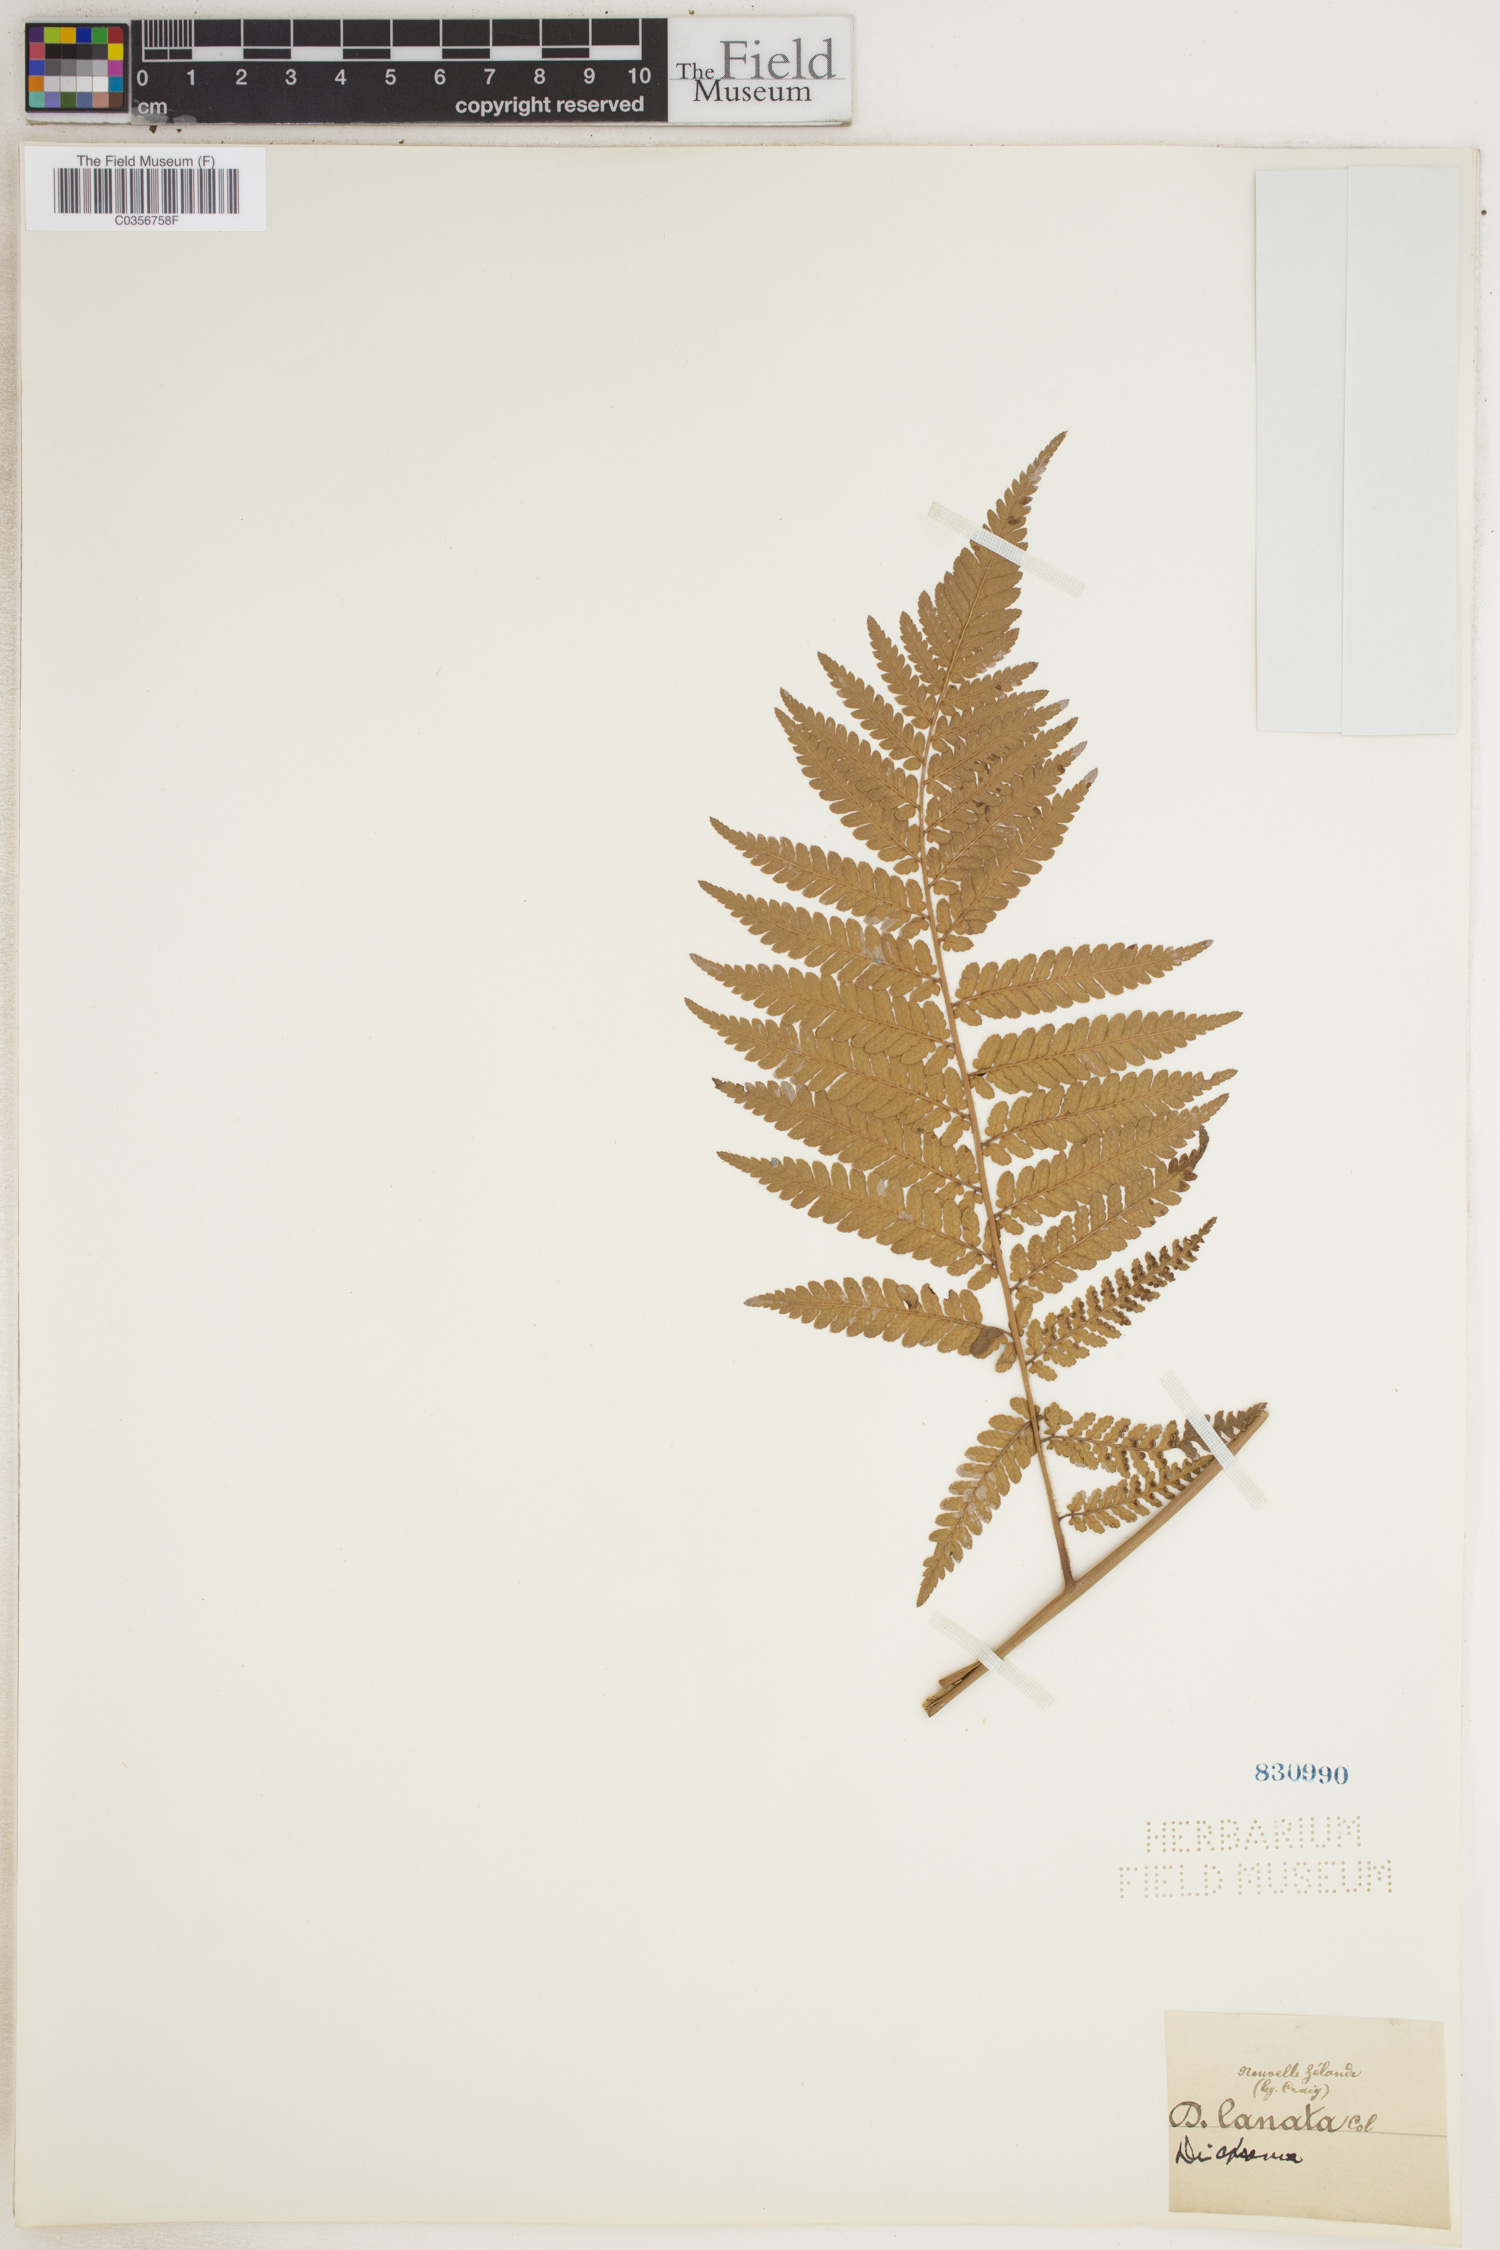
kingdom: Plantae
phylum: Tracheophyta
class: Polypodiopsida
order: Cyatheales
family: Dicksoniaceae
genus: Dicksonia
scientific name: Dicksonia lanata
